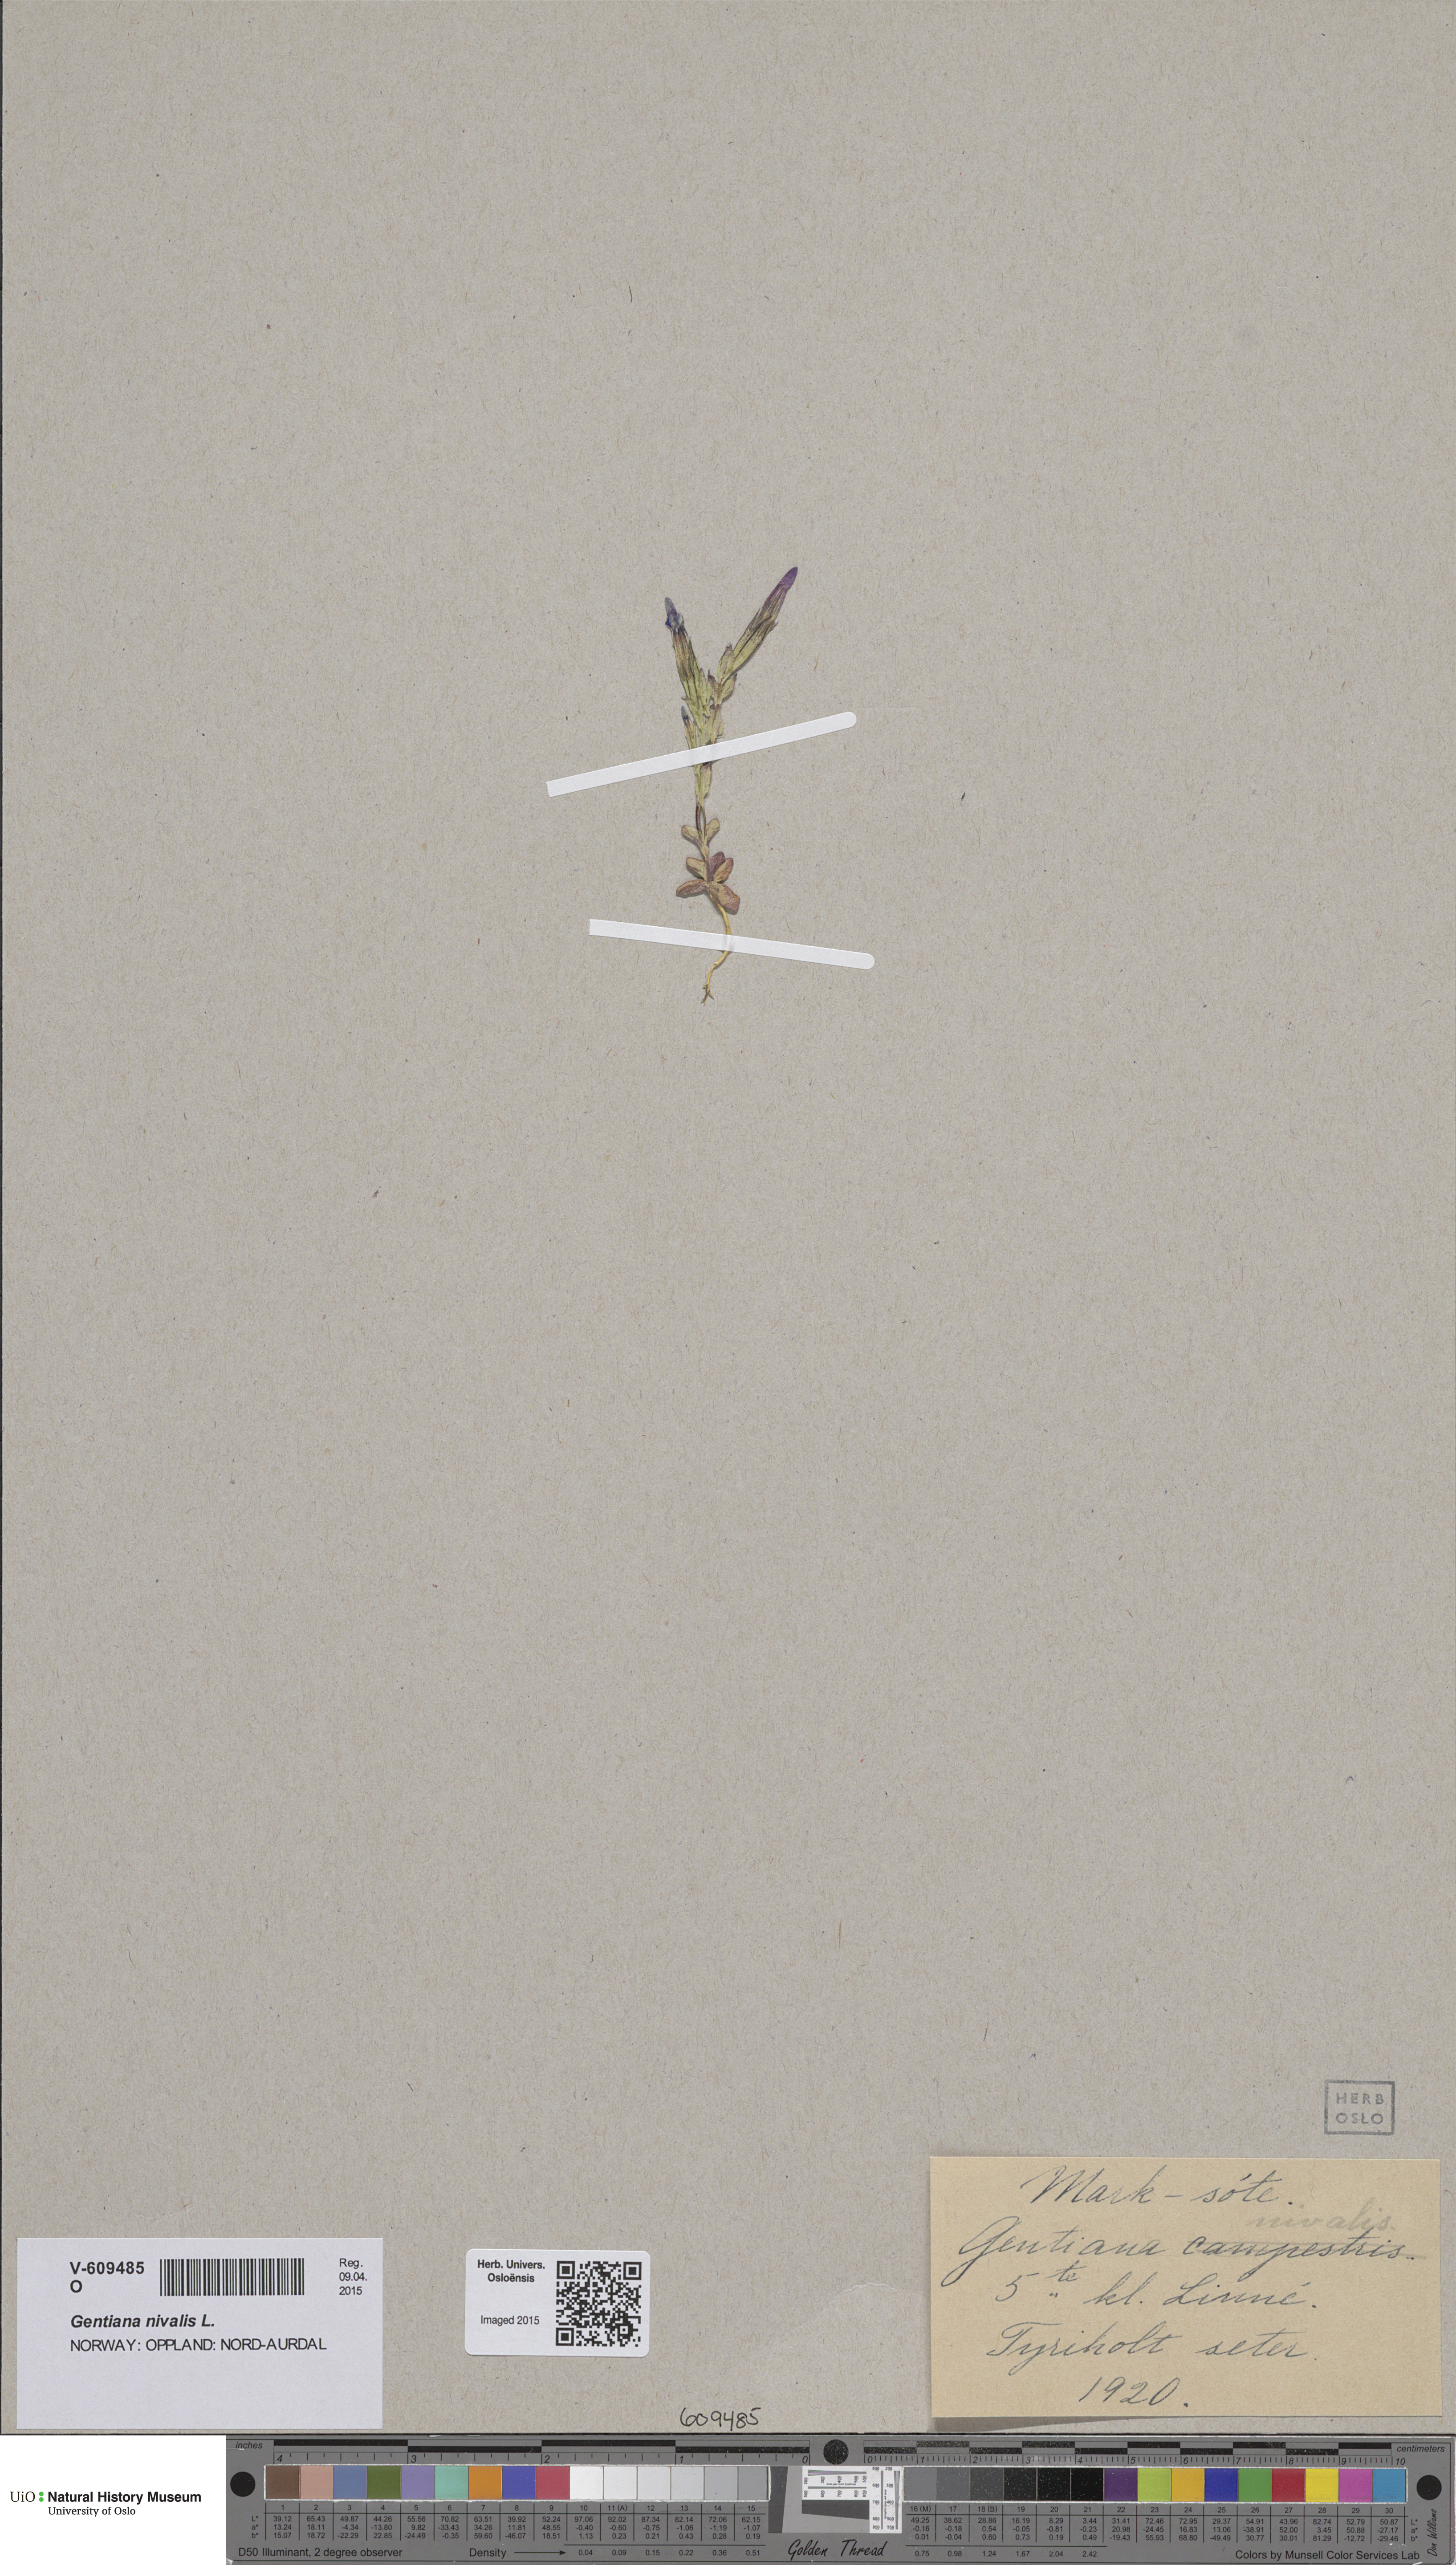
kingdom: Plantae
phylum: Tracheophyta
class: Magnoliopsida
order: Gentianales
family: Gentianaceae
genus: Gentiana
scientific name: Gentiana nivalis
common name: Alpine gentian
